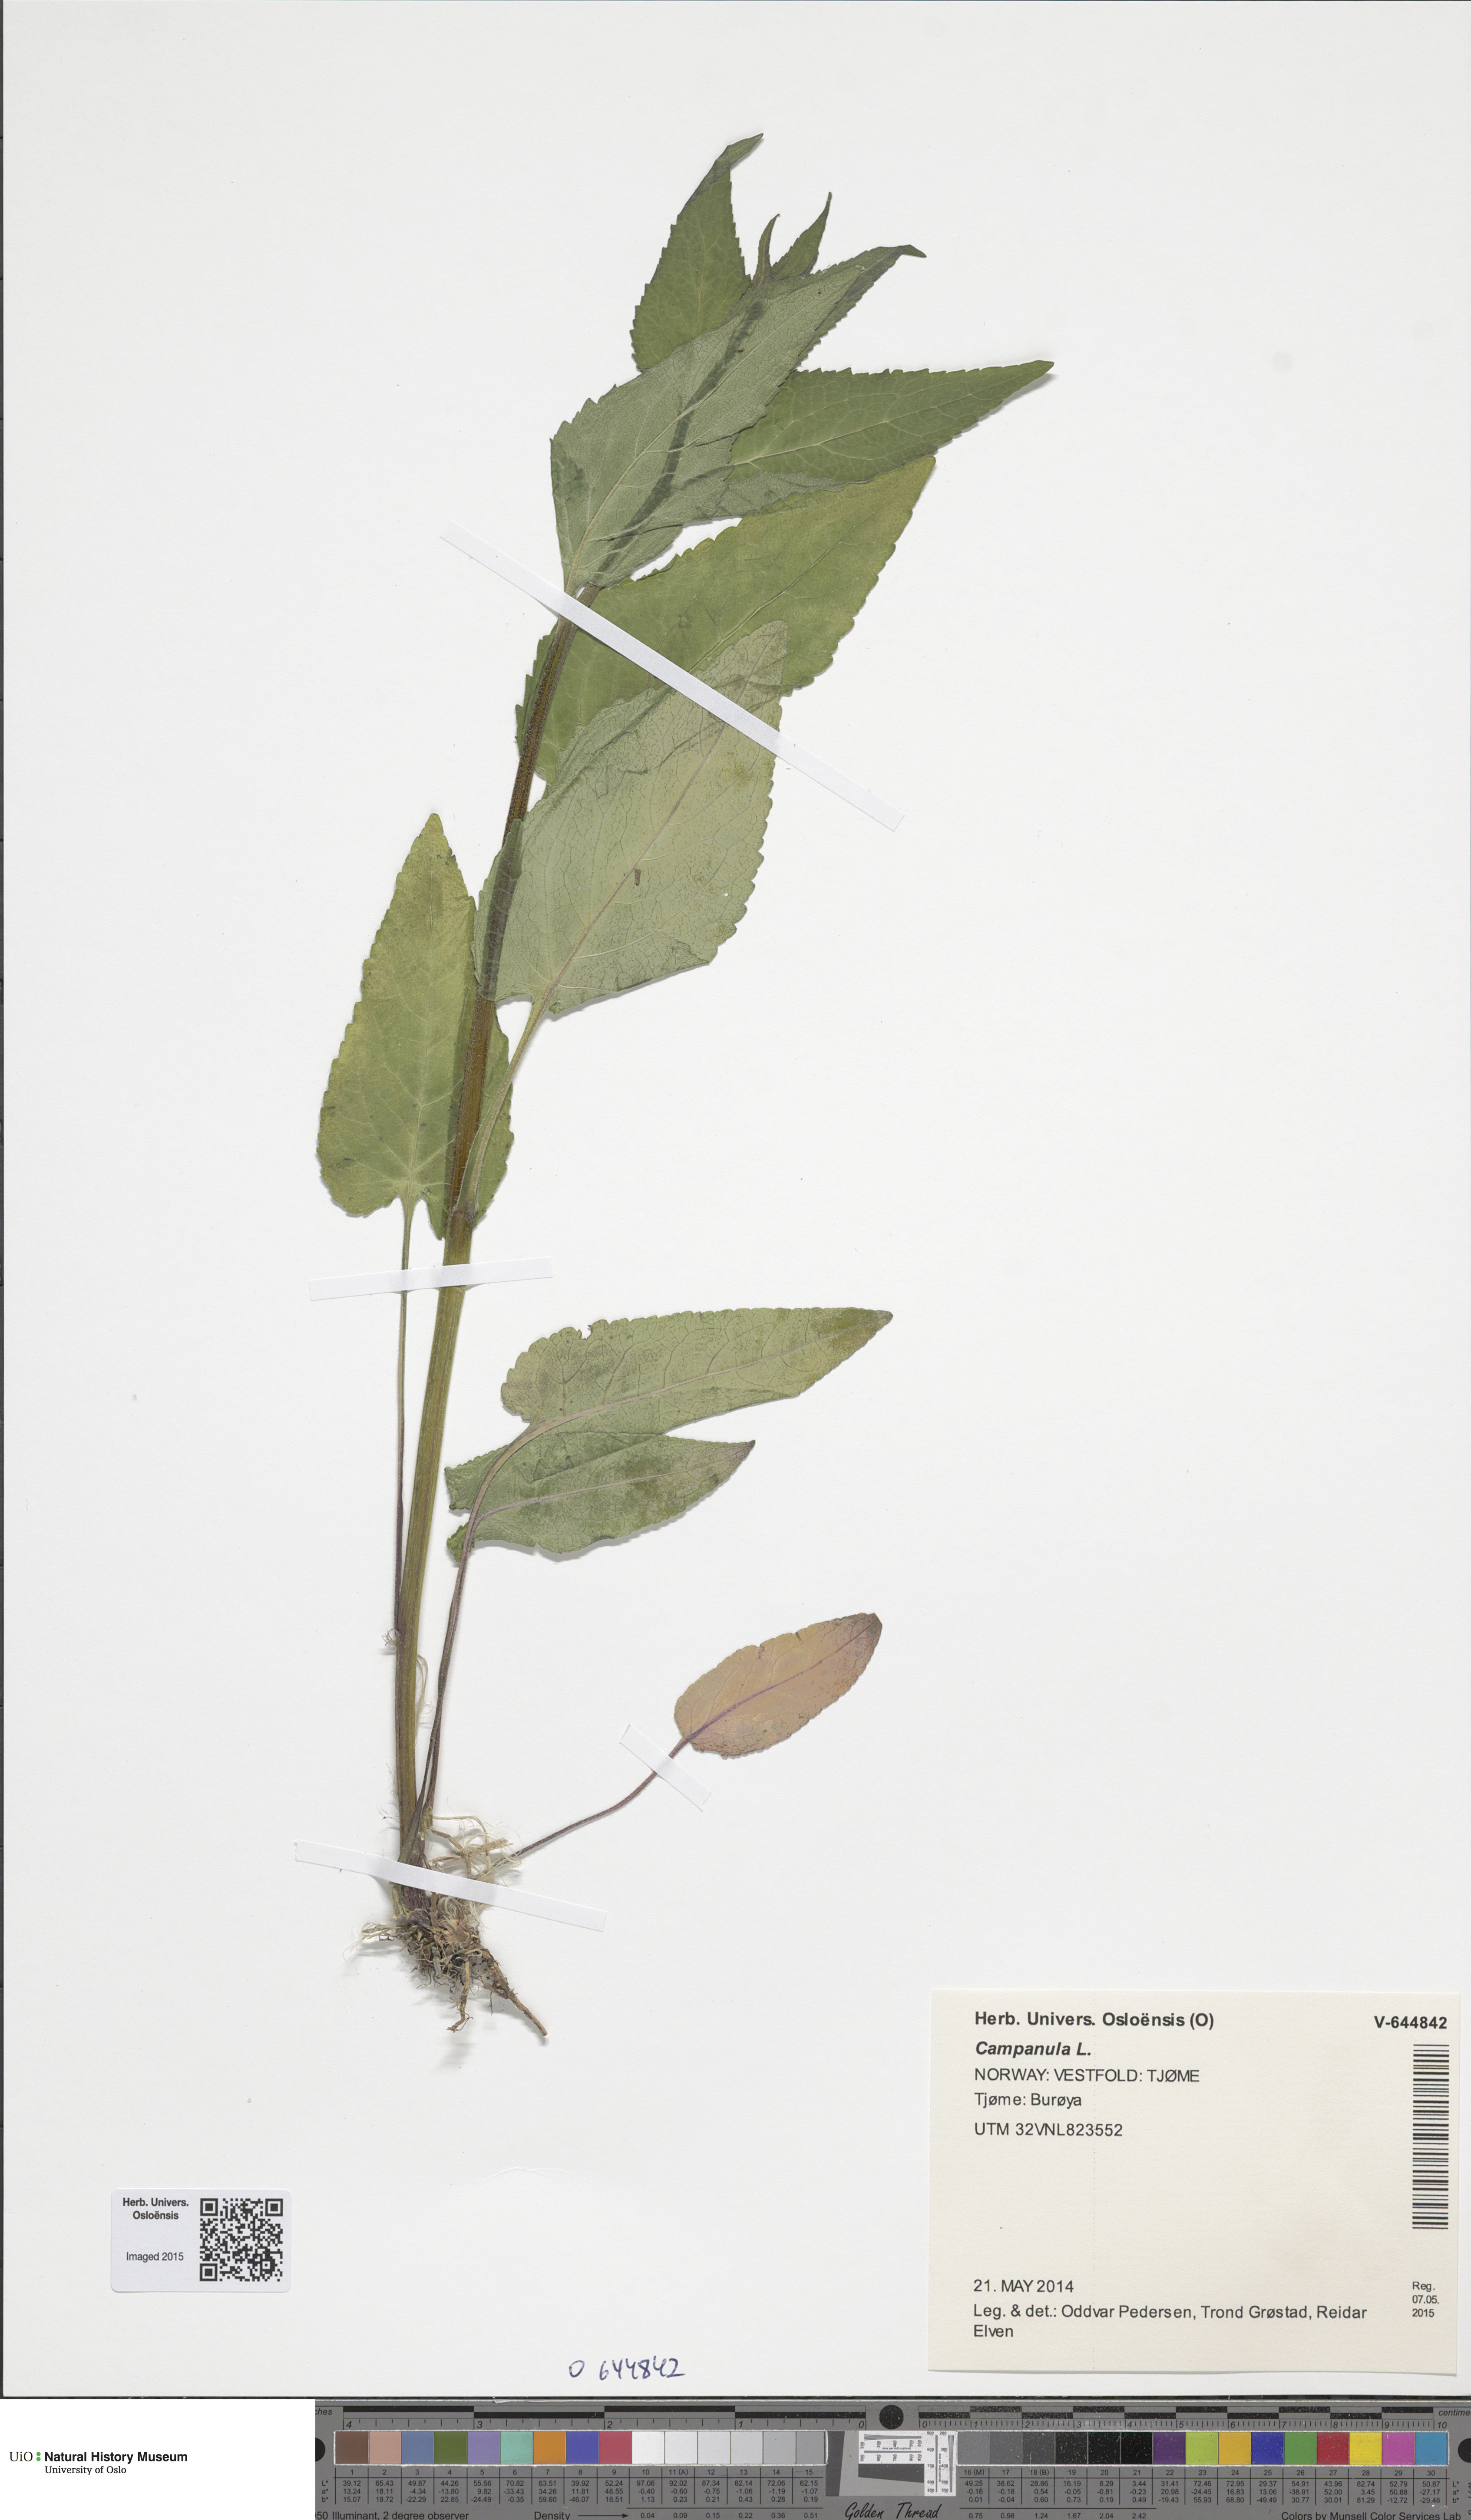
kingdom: Plantae
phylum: Tracheophyta
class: Magnoliopsida
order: Asterales
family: Campanulaceae
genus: Campanula
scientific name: Campanula rapunculoides
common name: Creeping bellflower
